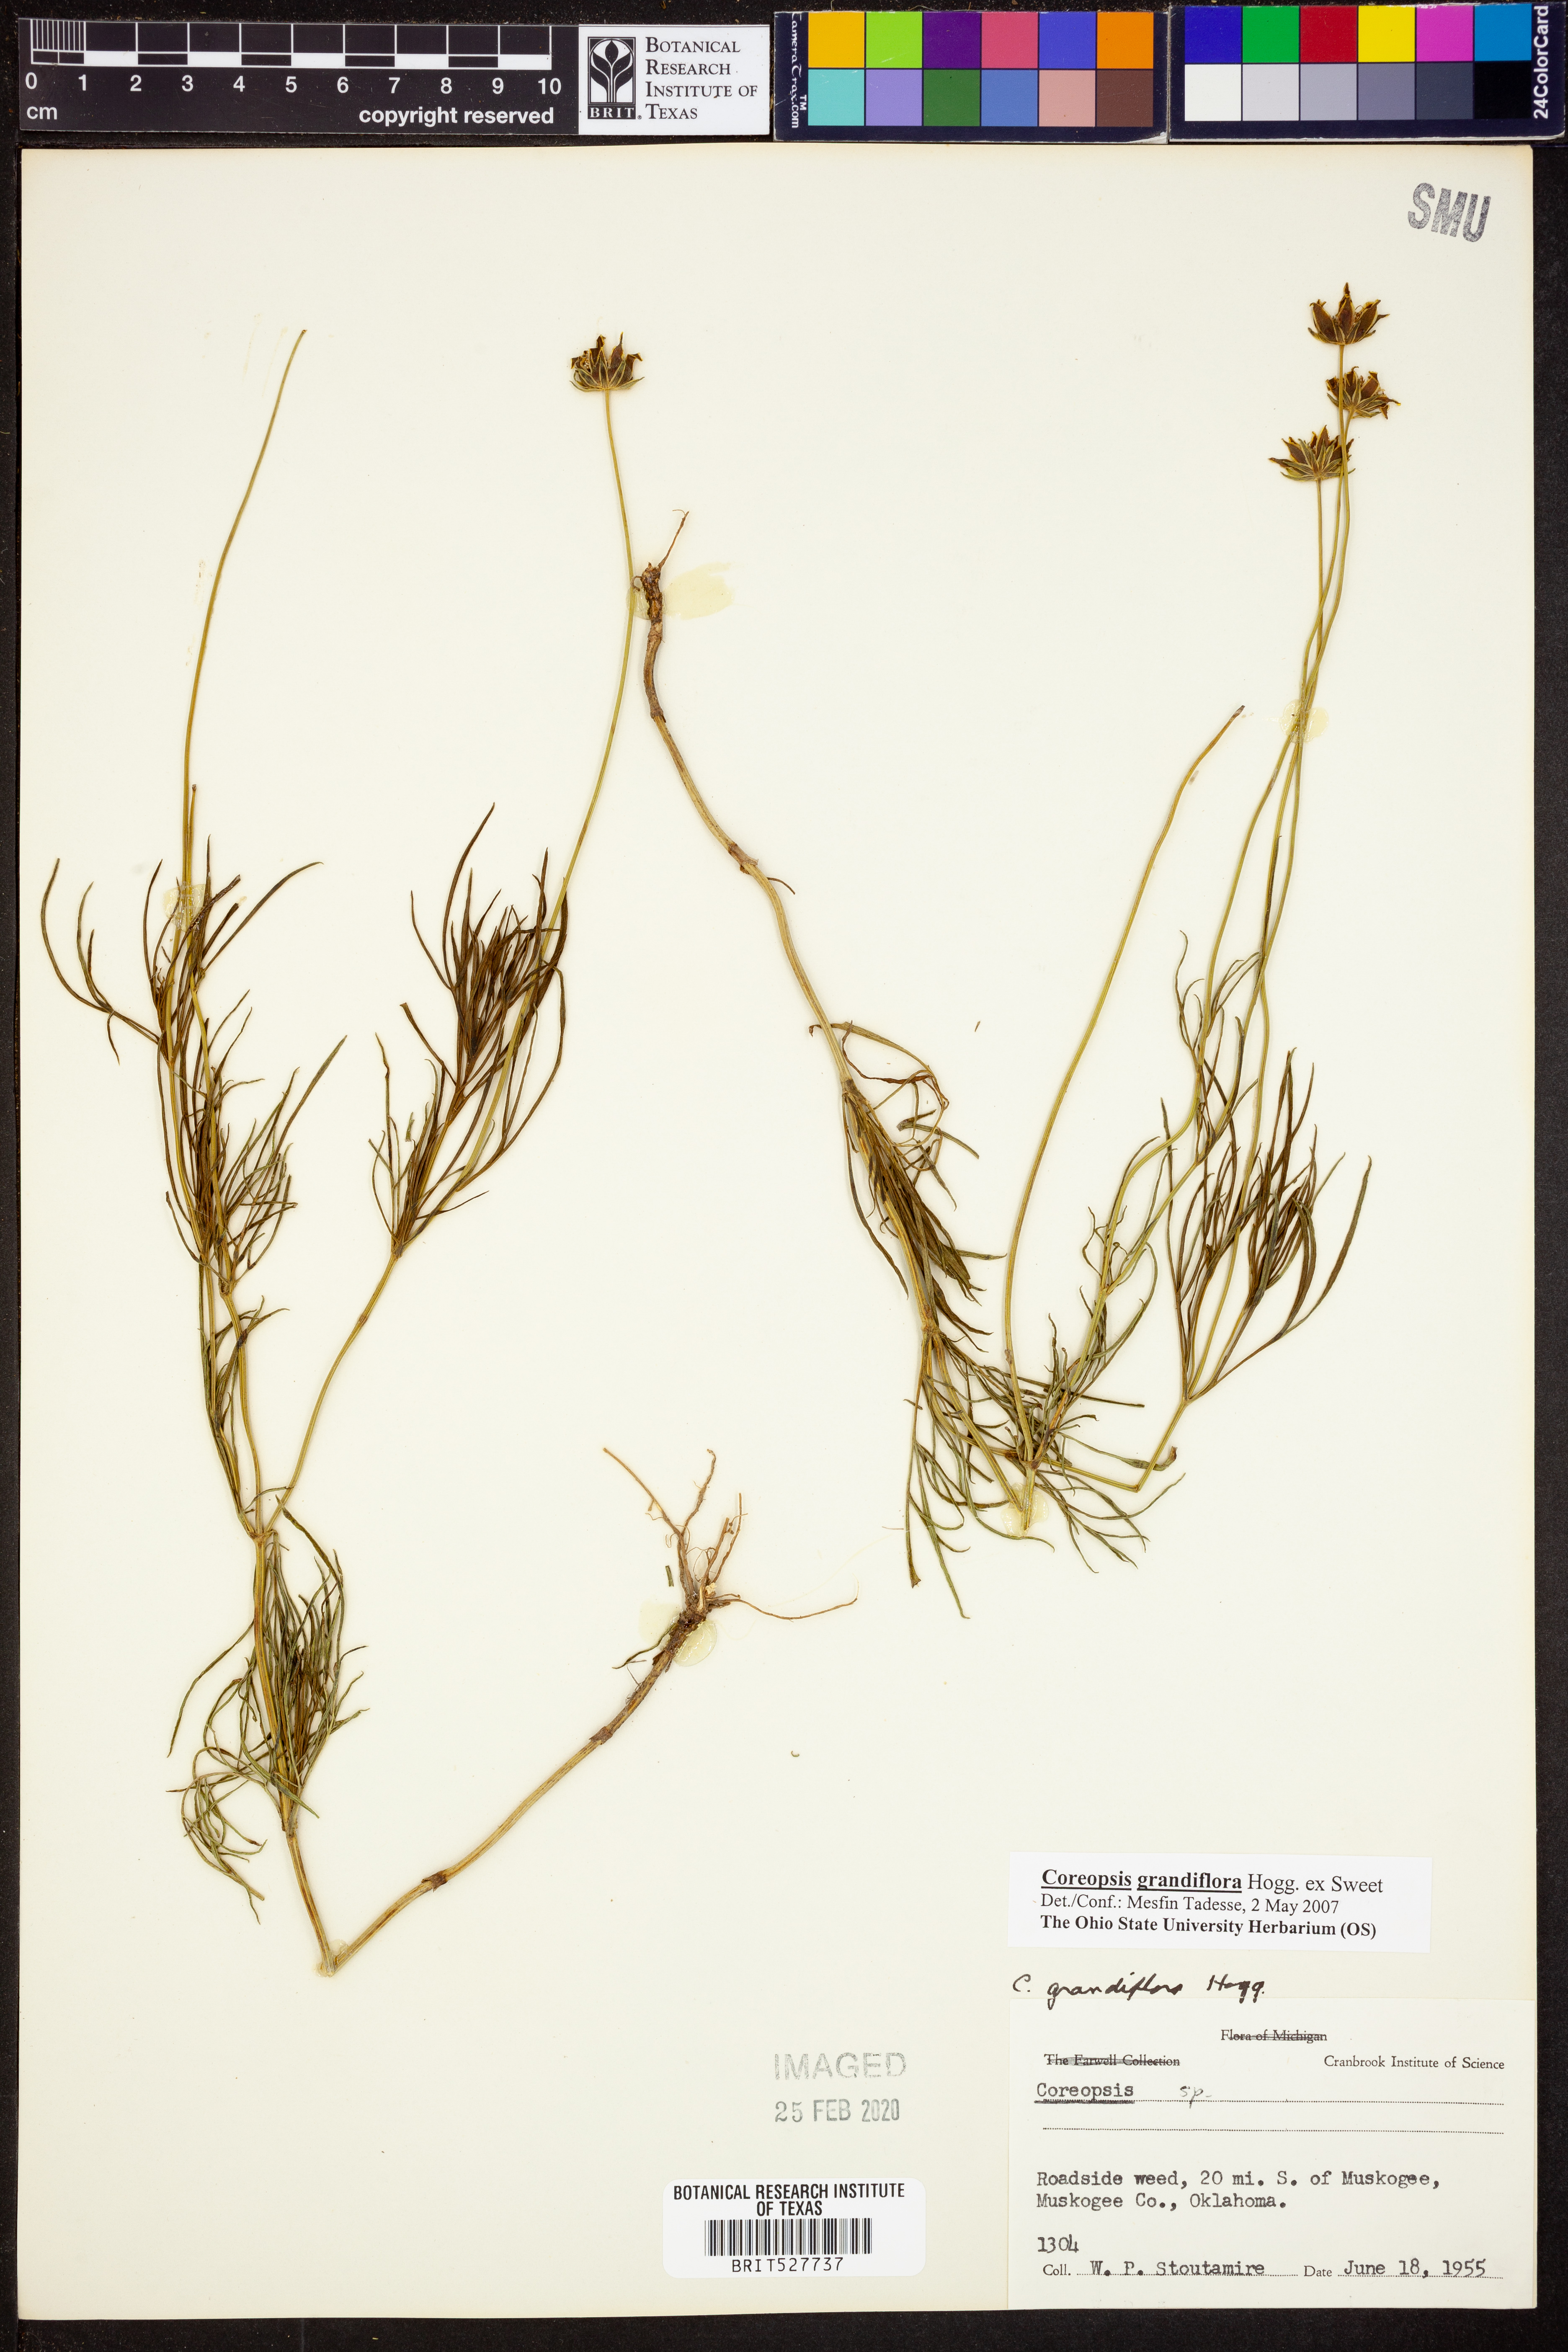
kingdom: Plantae
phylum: Tracheophyta
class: Magnoliopsida
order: Asterales
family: Asteraceae
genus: Coreopsis
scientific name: Coreopsis grandiflora
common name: Large-flowered tickseed
